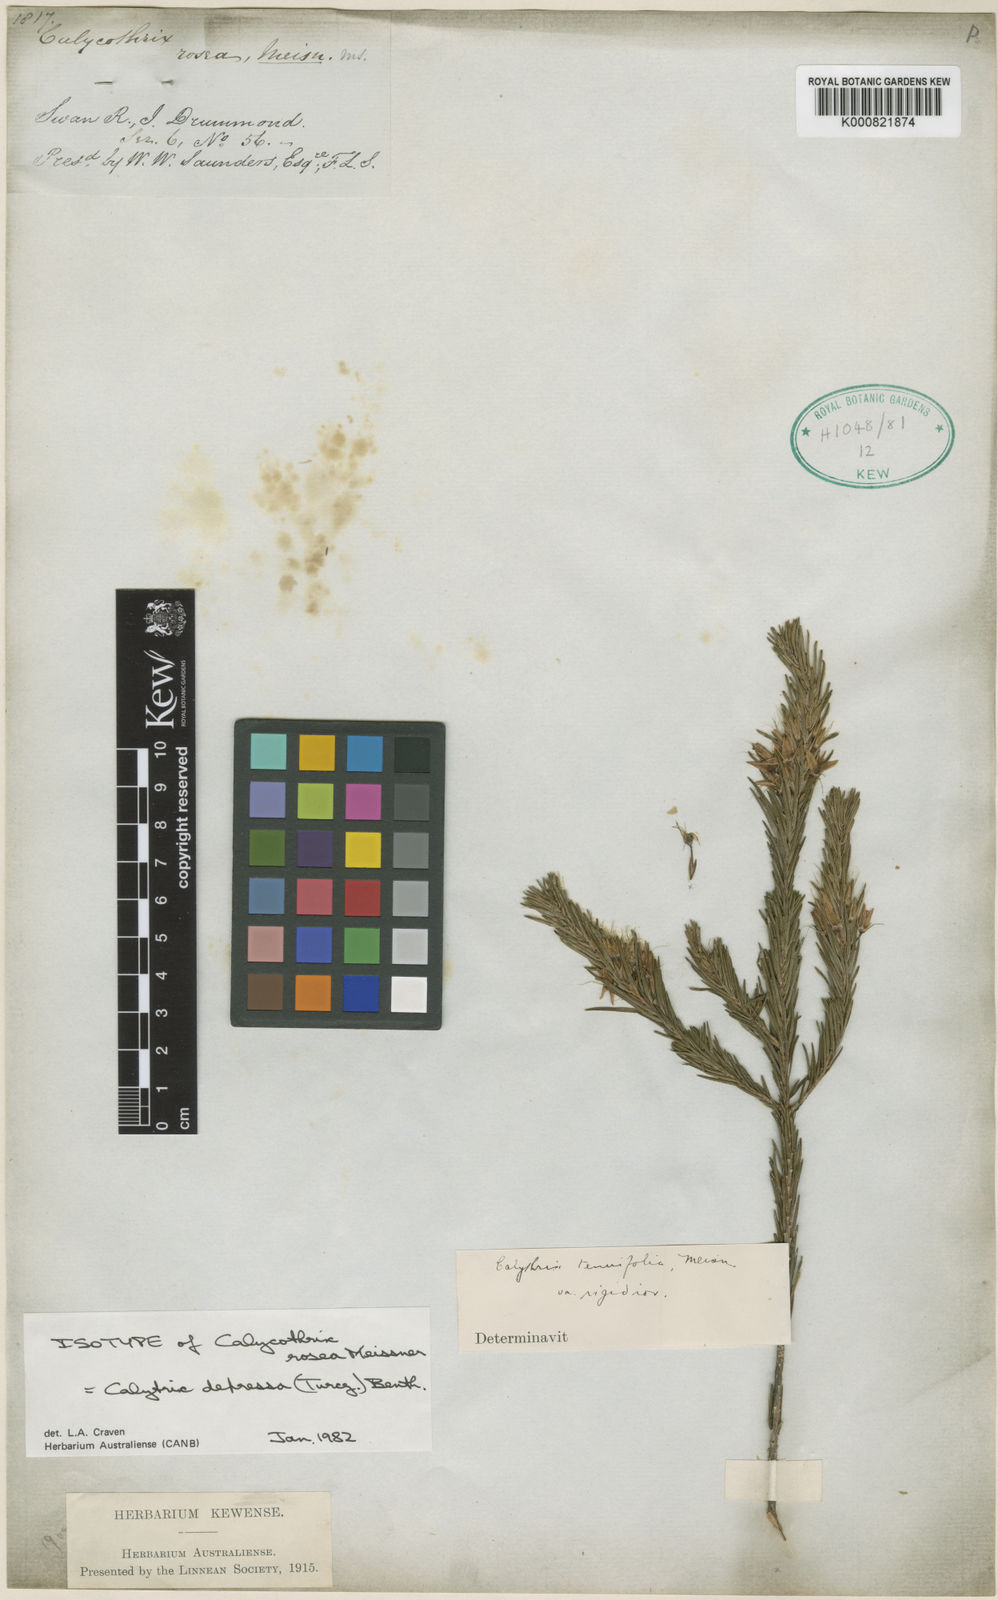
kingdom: Plantae
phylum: Tracheophyta
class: Magnoliopsida
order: Myrtales
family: Myrtaceae
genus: Calytrix
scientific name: Calytrix depressa
